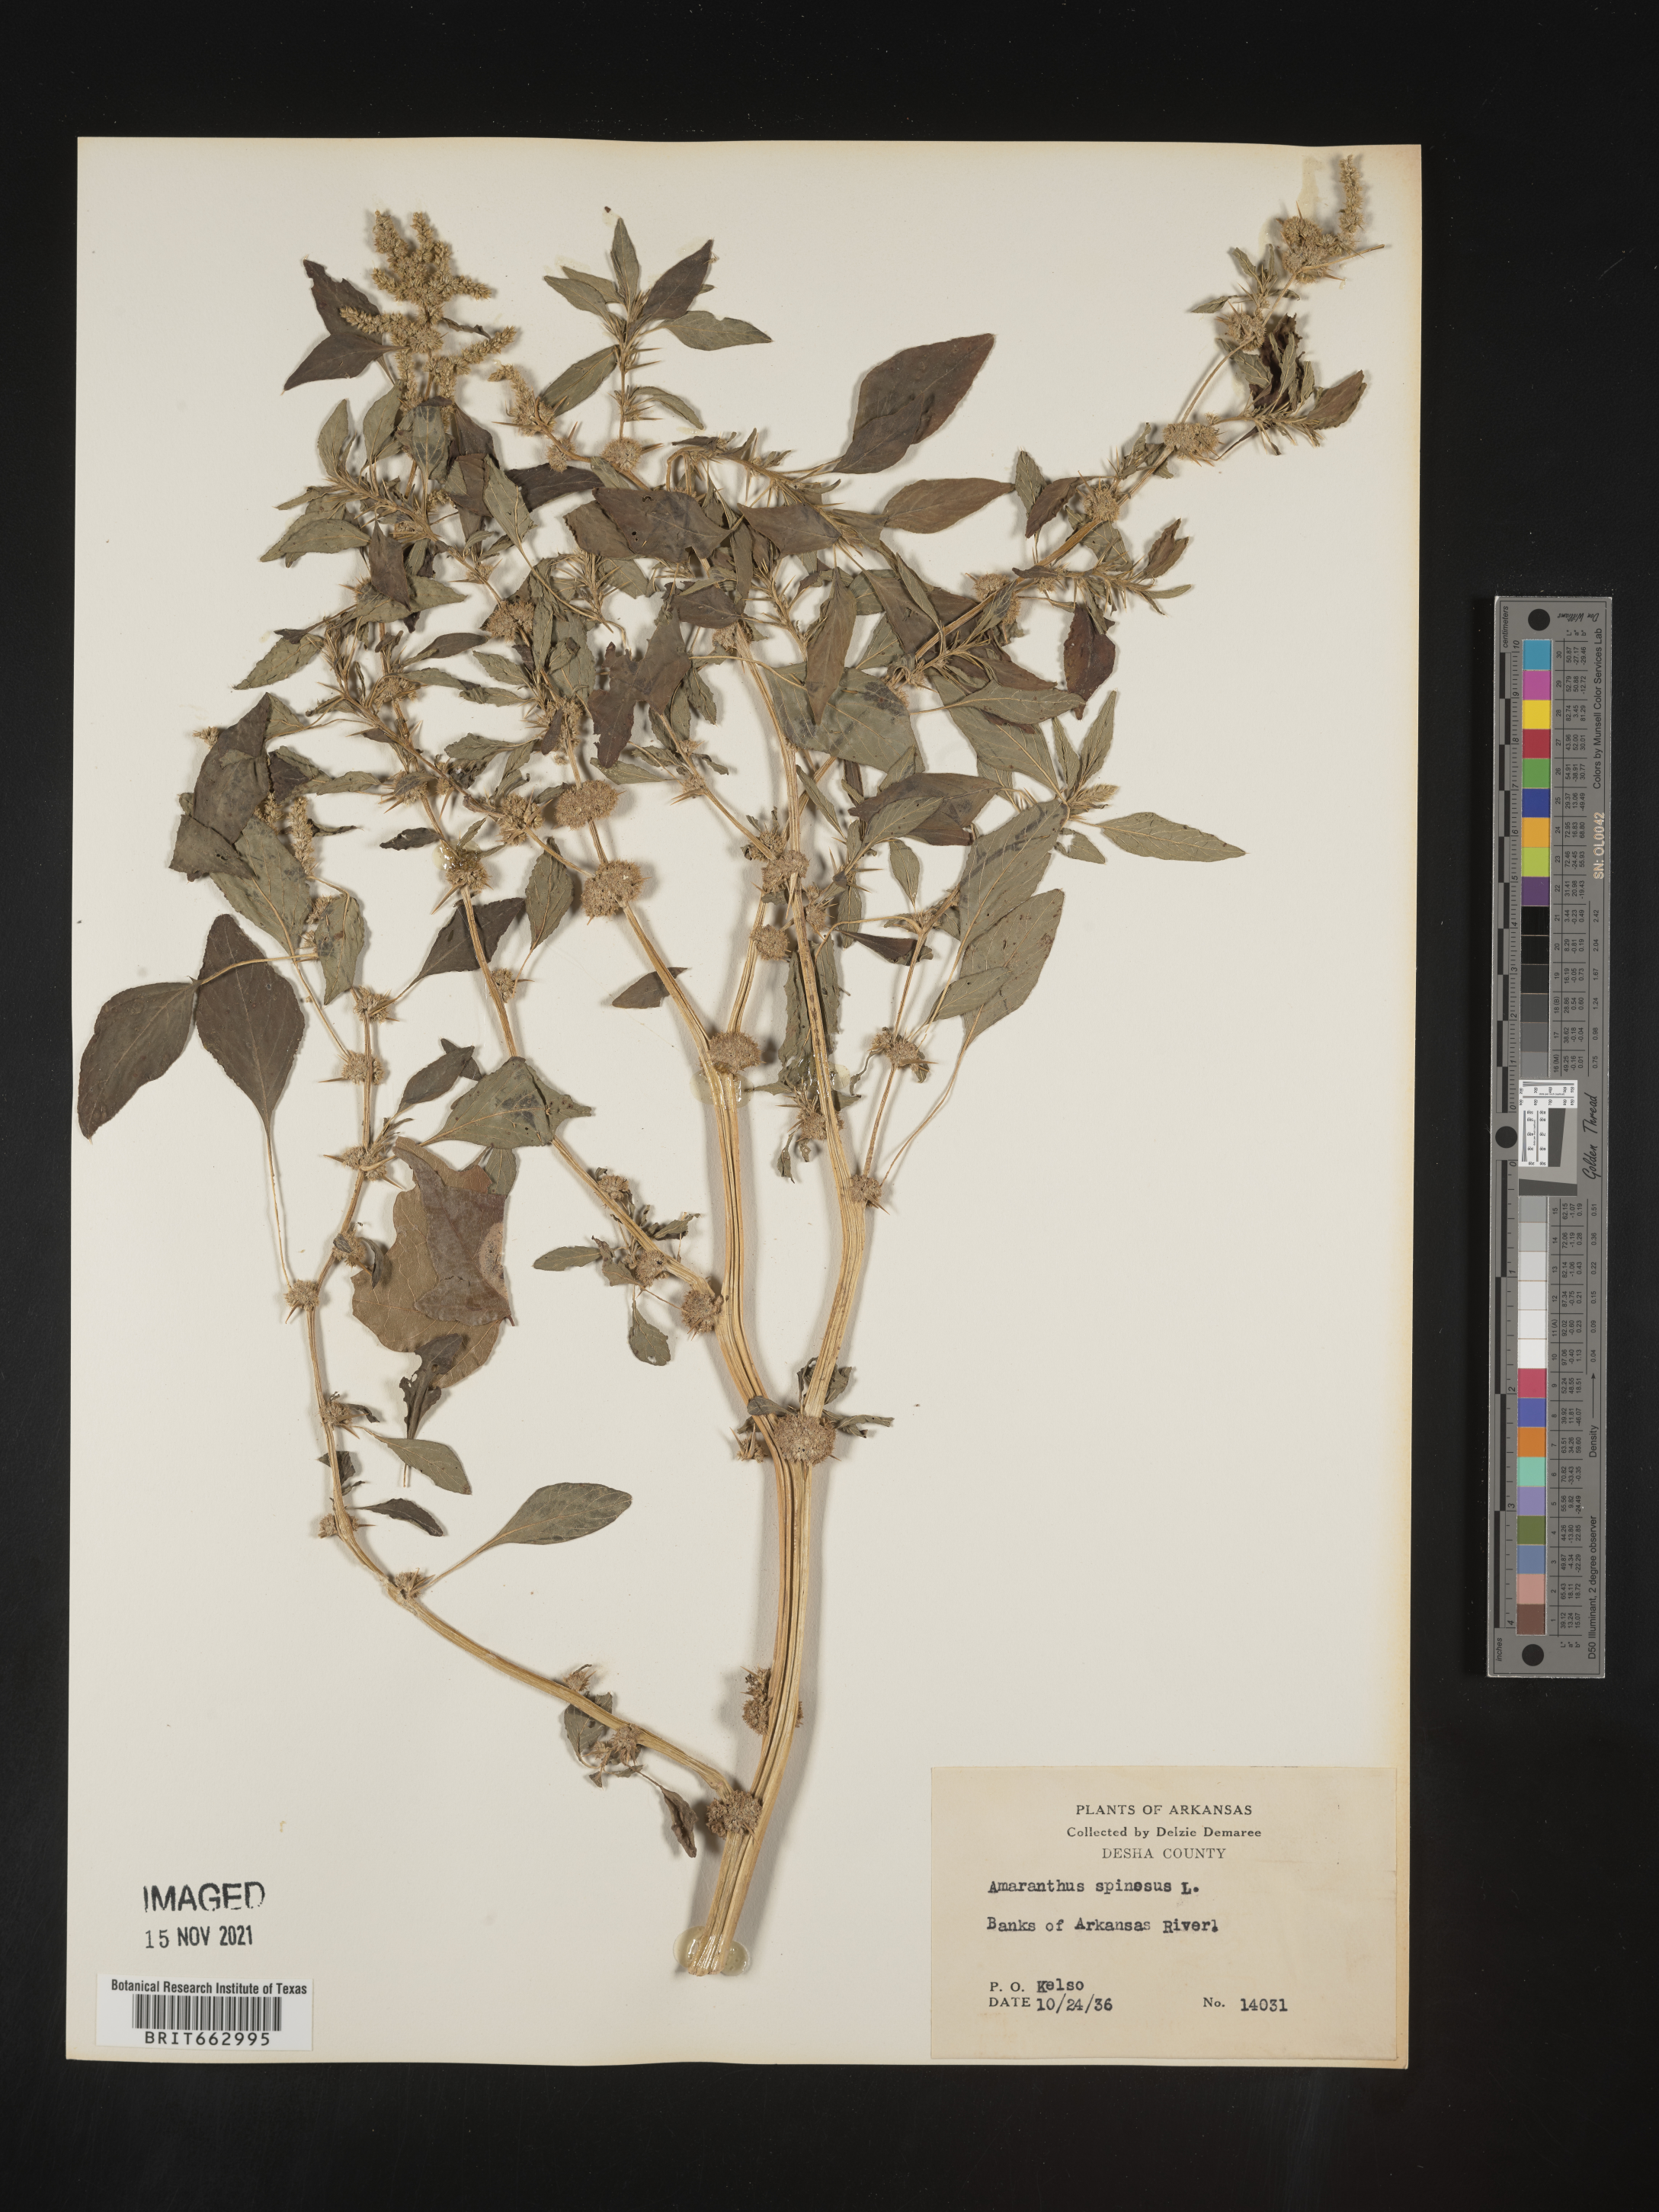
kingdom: Plantae
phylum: Tracheophyta
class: Magnoliopsida
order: Caryophyllales
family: Amaranthaceae
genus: Amaranthus
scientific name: Amaranthus spinosus
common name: Spiny amaranth
